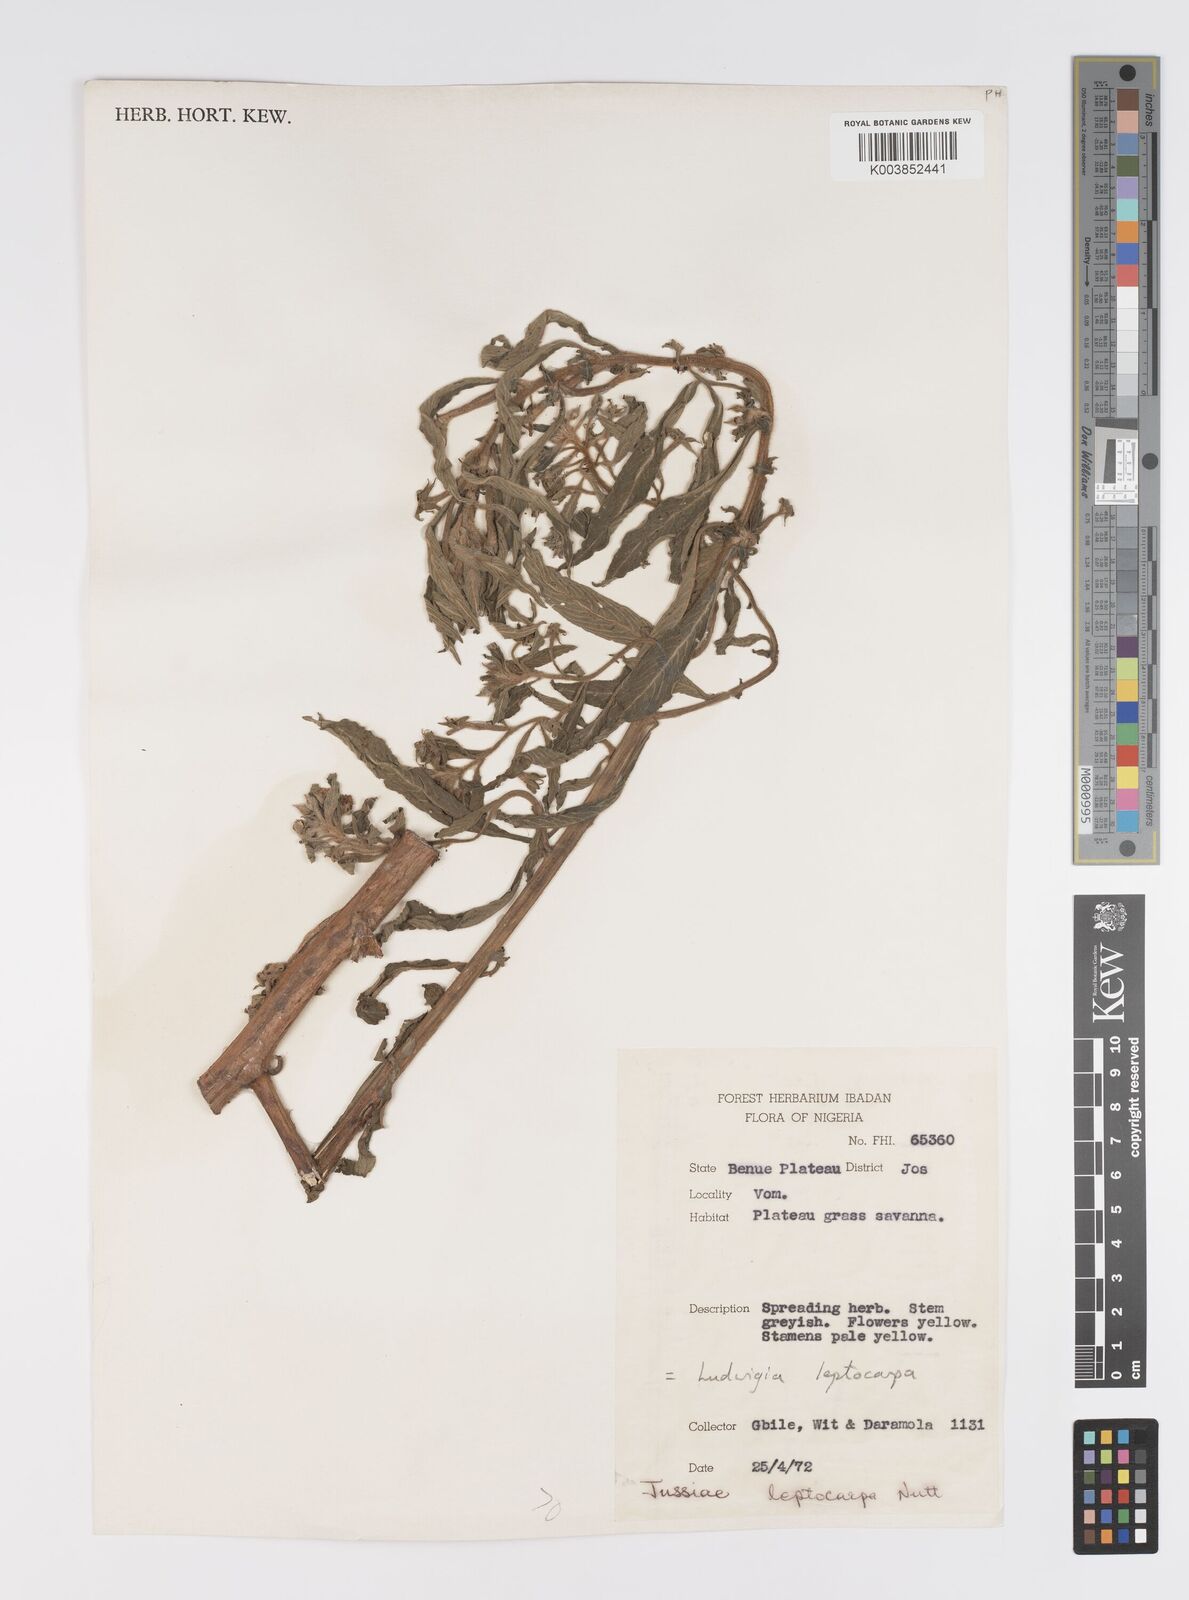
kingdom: Plantae
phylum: Tracheophyta
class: Magnoliopsida
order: Myrtales
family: Onagraceae
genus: Ludwigia
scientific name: Ludwigia leptocarpa
